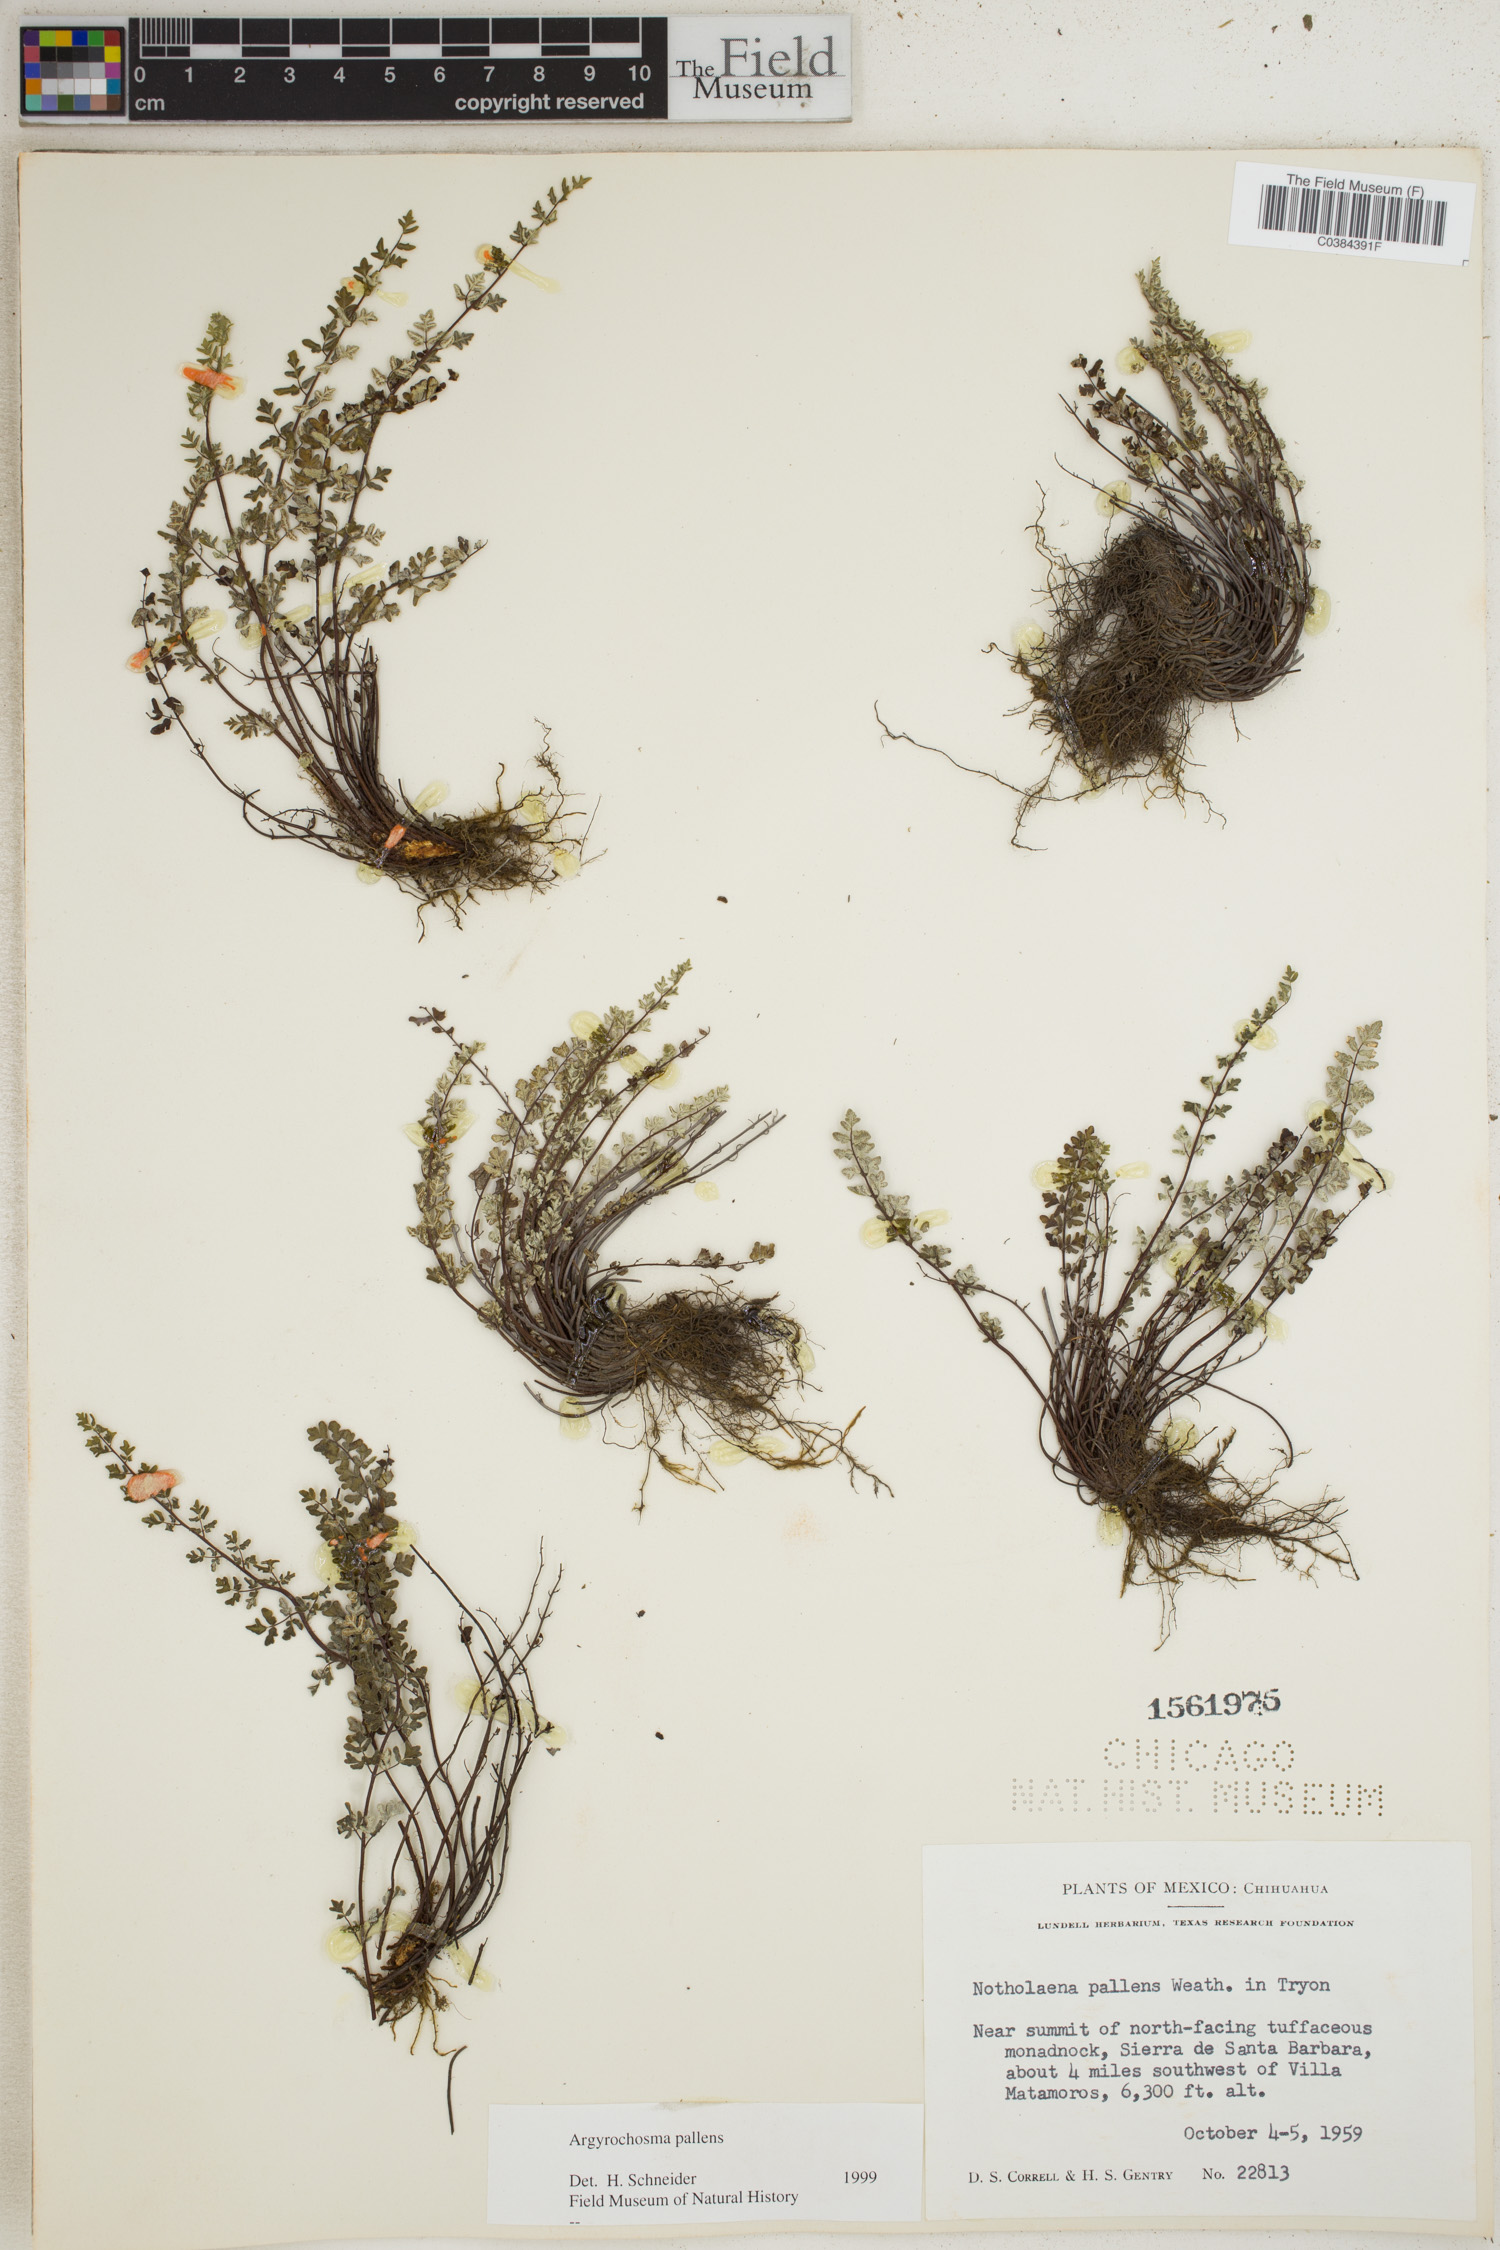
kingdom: Plantae
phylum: Tracheophyta
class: Polypodiopsida
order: Polypodiales
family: Pteridaceae
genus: Argyrochosma
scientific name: Argyrochosma pallens
